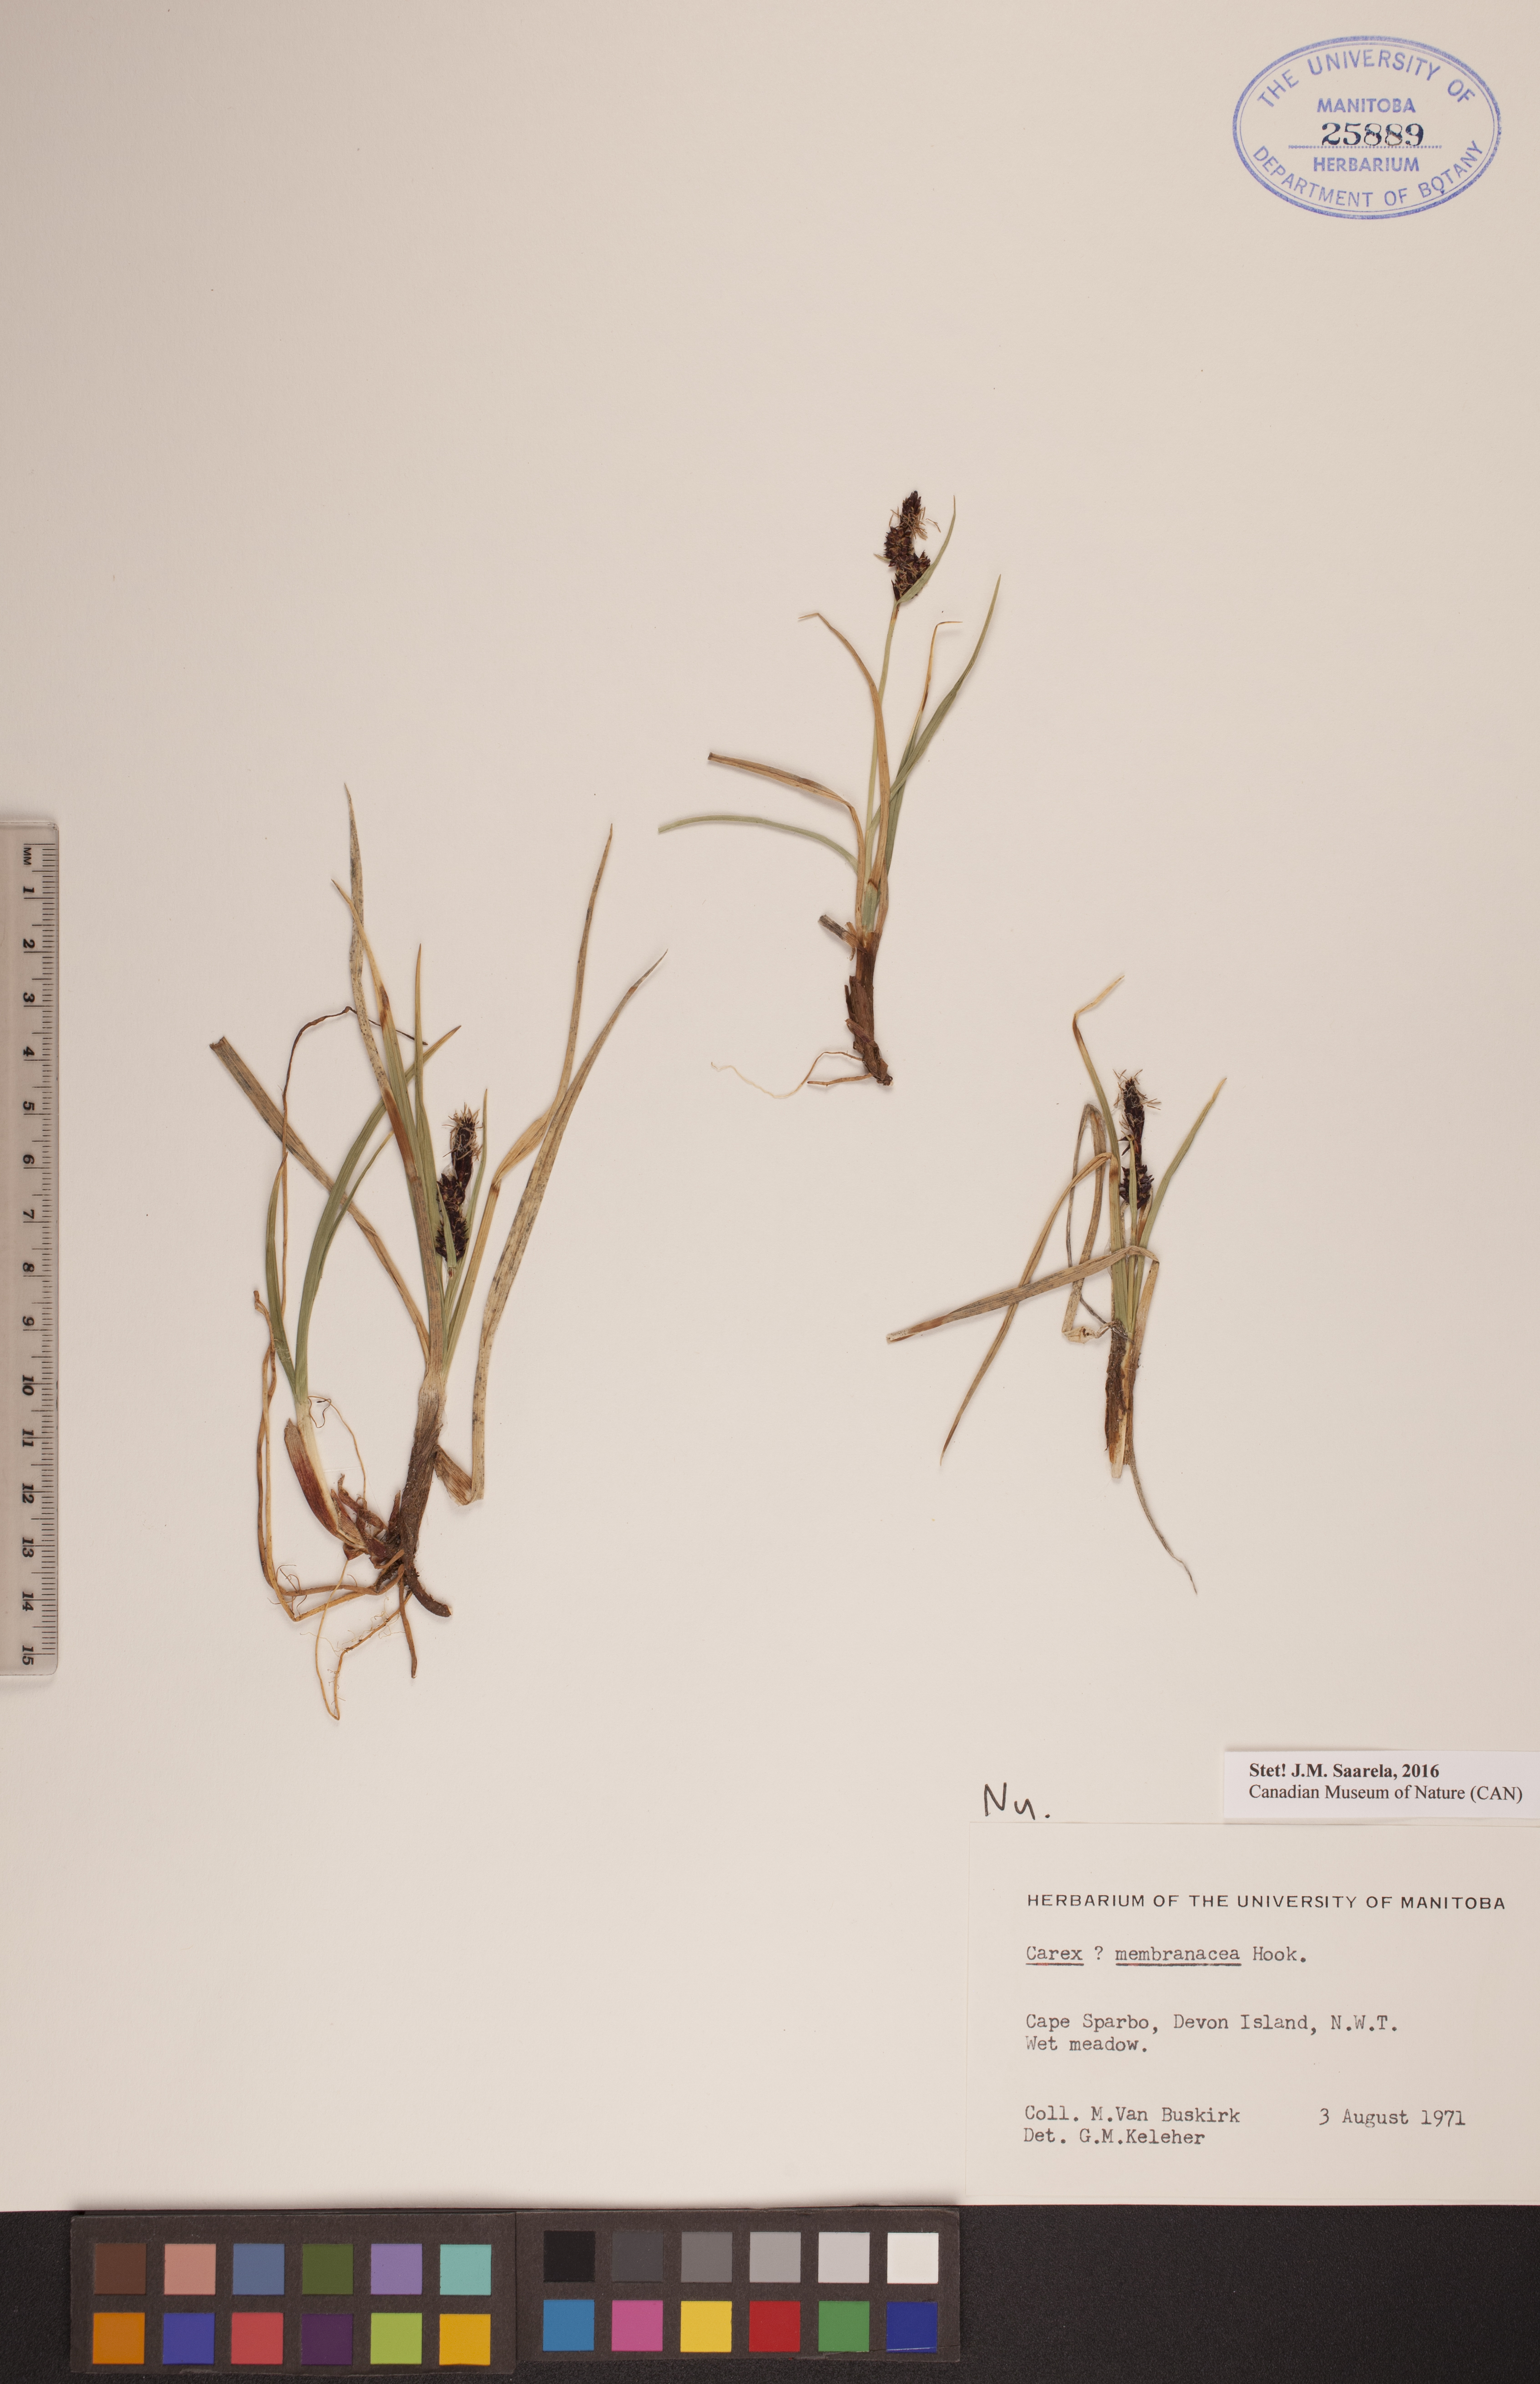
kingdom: Plantae
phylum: Tracheophyta
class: Liliopsida
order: Poales
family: Cyperaceae
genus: Carex
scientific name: Carex membranacea
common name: Fragile sedge
